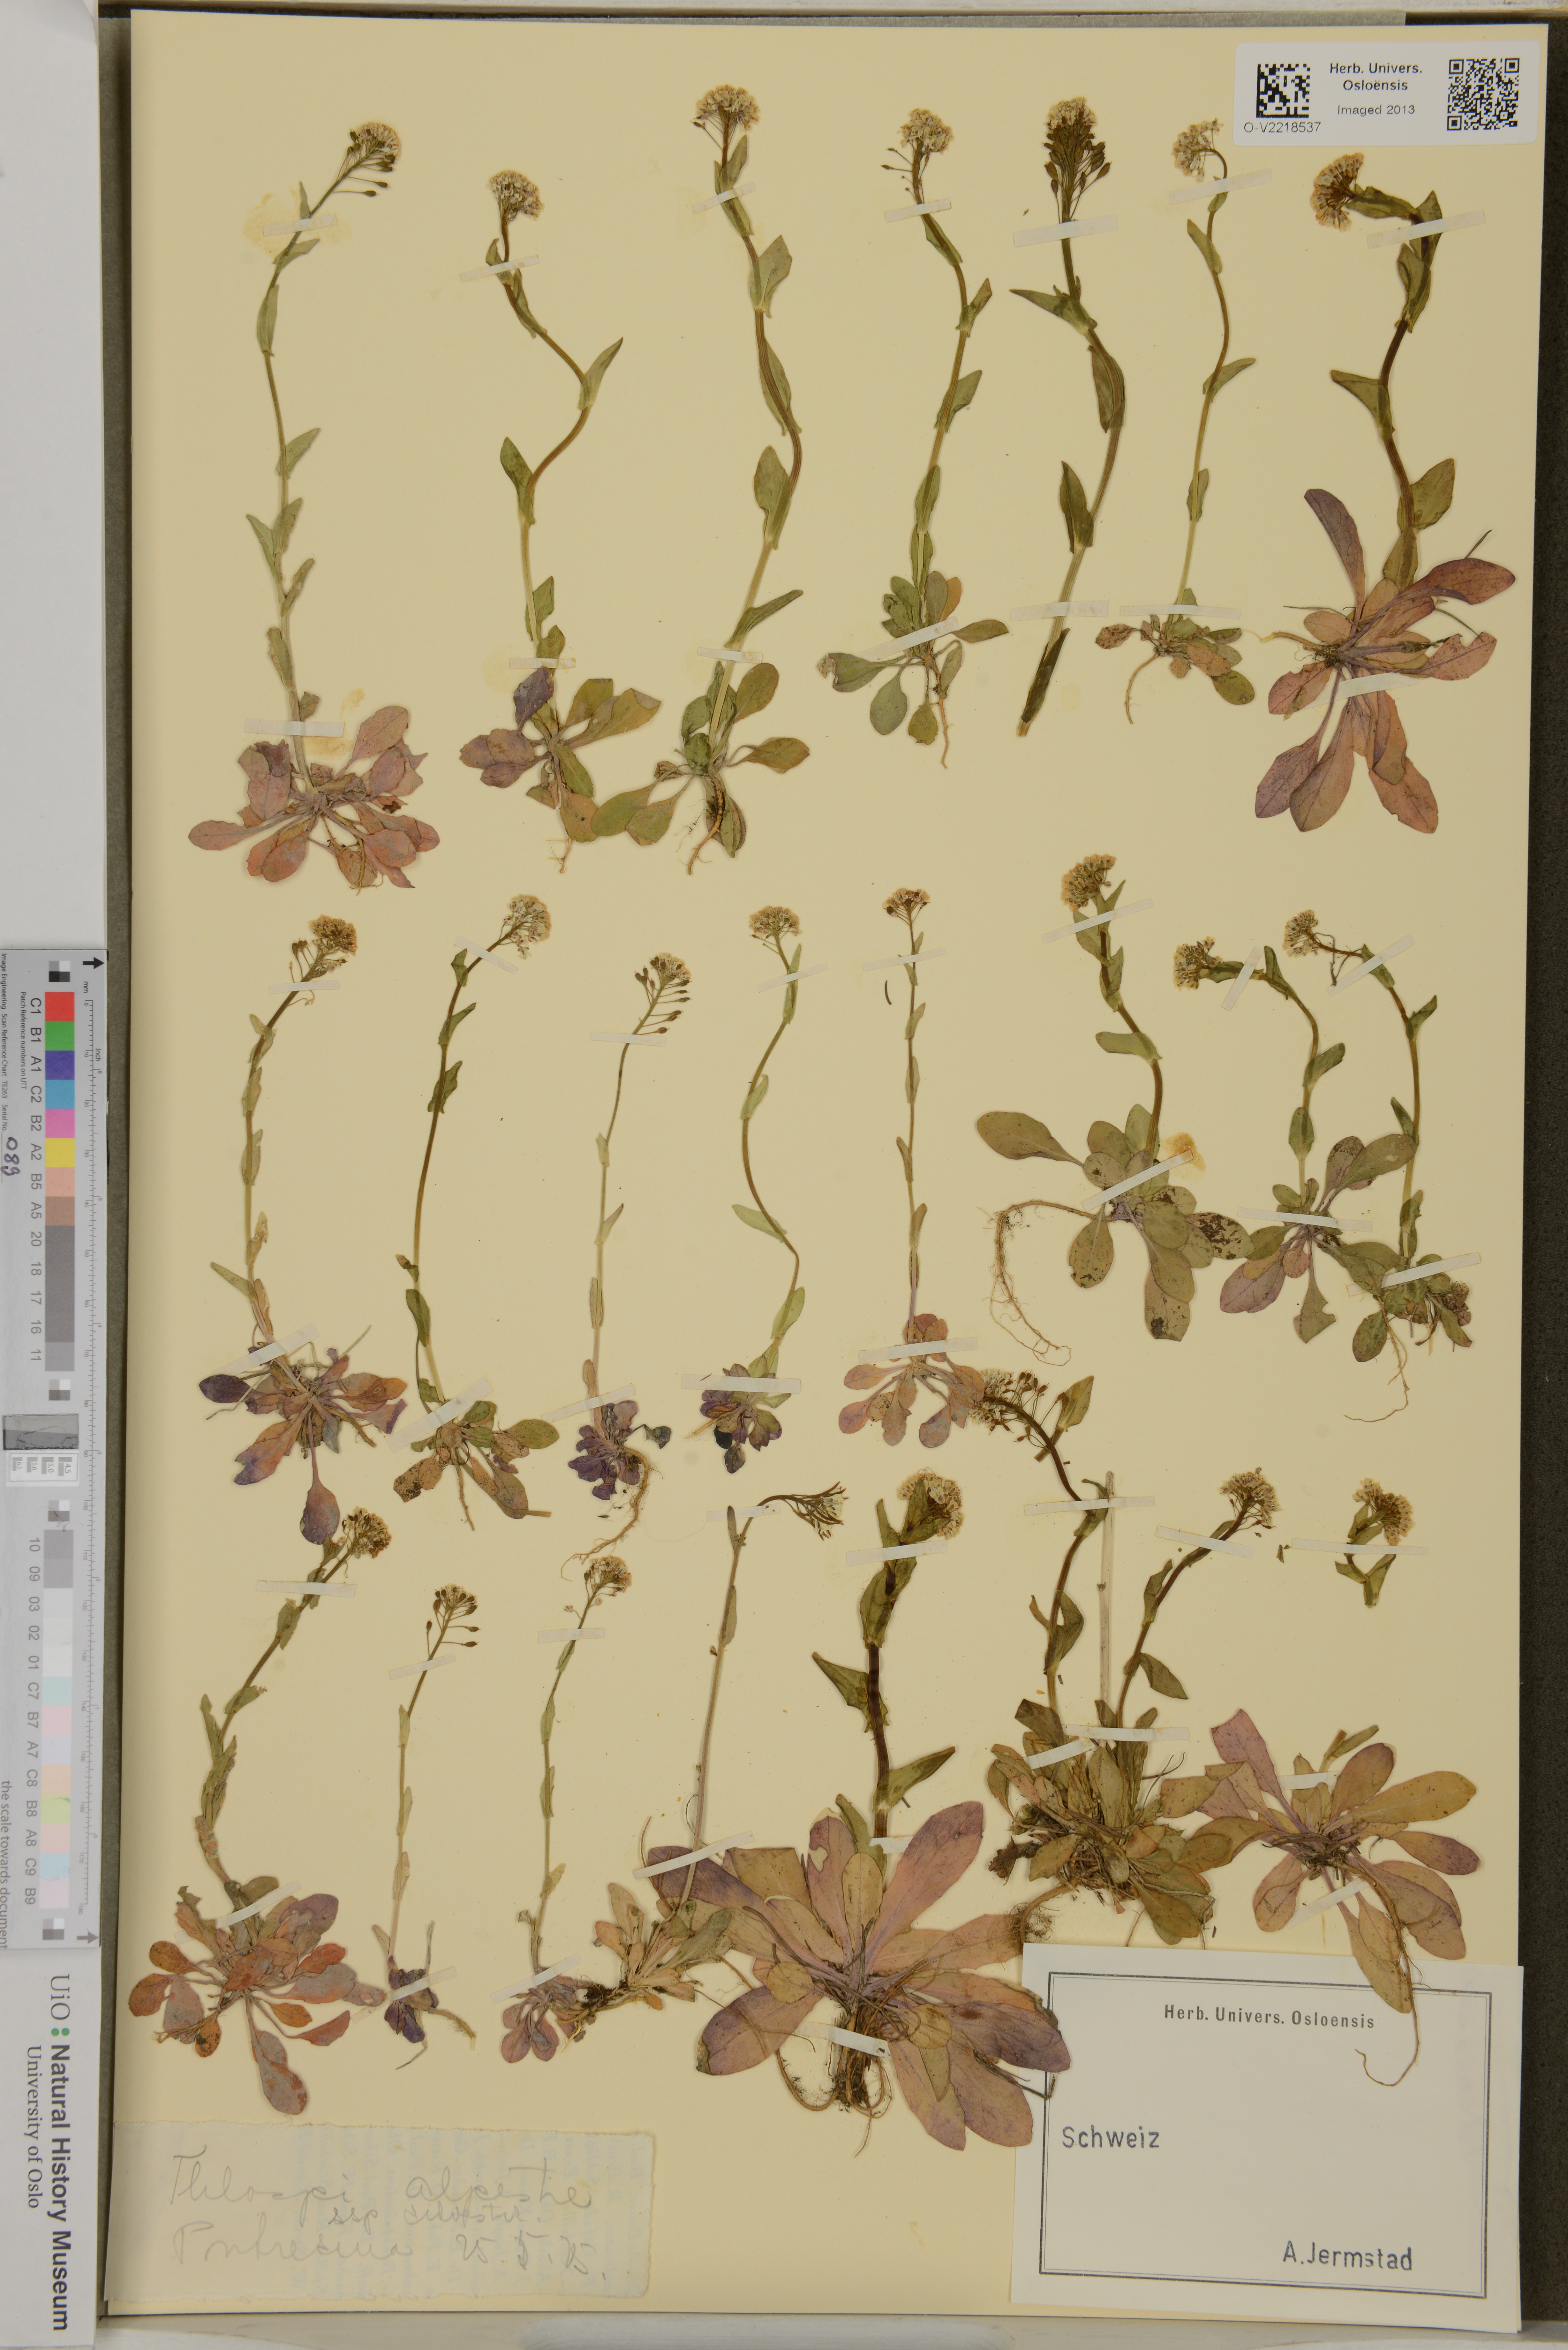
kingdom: Plantae
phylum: Tracheophyta
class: Magnoliopsida
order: Brassicales
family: Brassicaceae
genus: Noccaea
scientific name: Noccaea caerulescens
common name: Alpine pennycress
